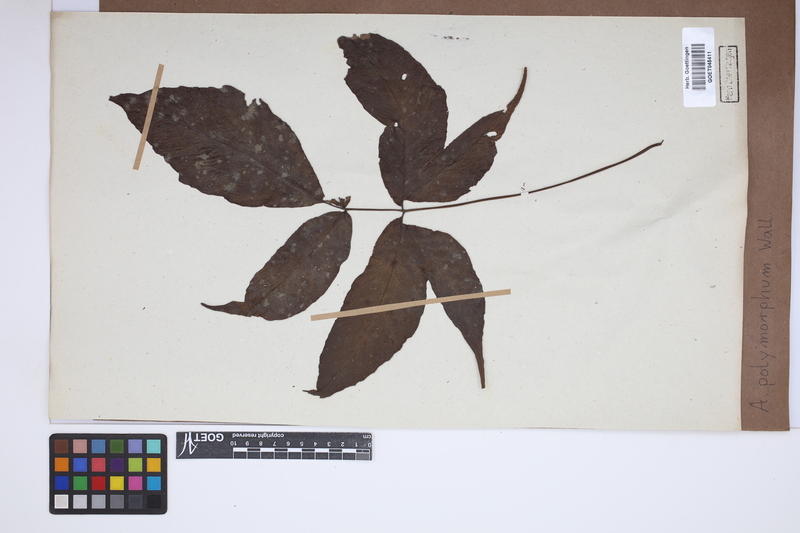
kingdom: Plantae
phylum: Tracheophyta
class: Polypodiopsida
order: Polypodiales
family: Tectariaceae
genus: Tectaria
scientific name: Tectaria polymorpha
